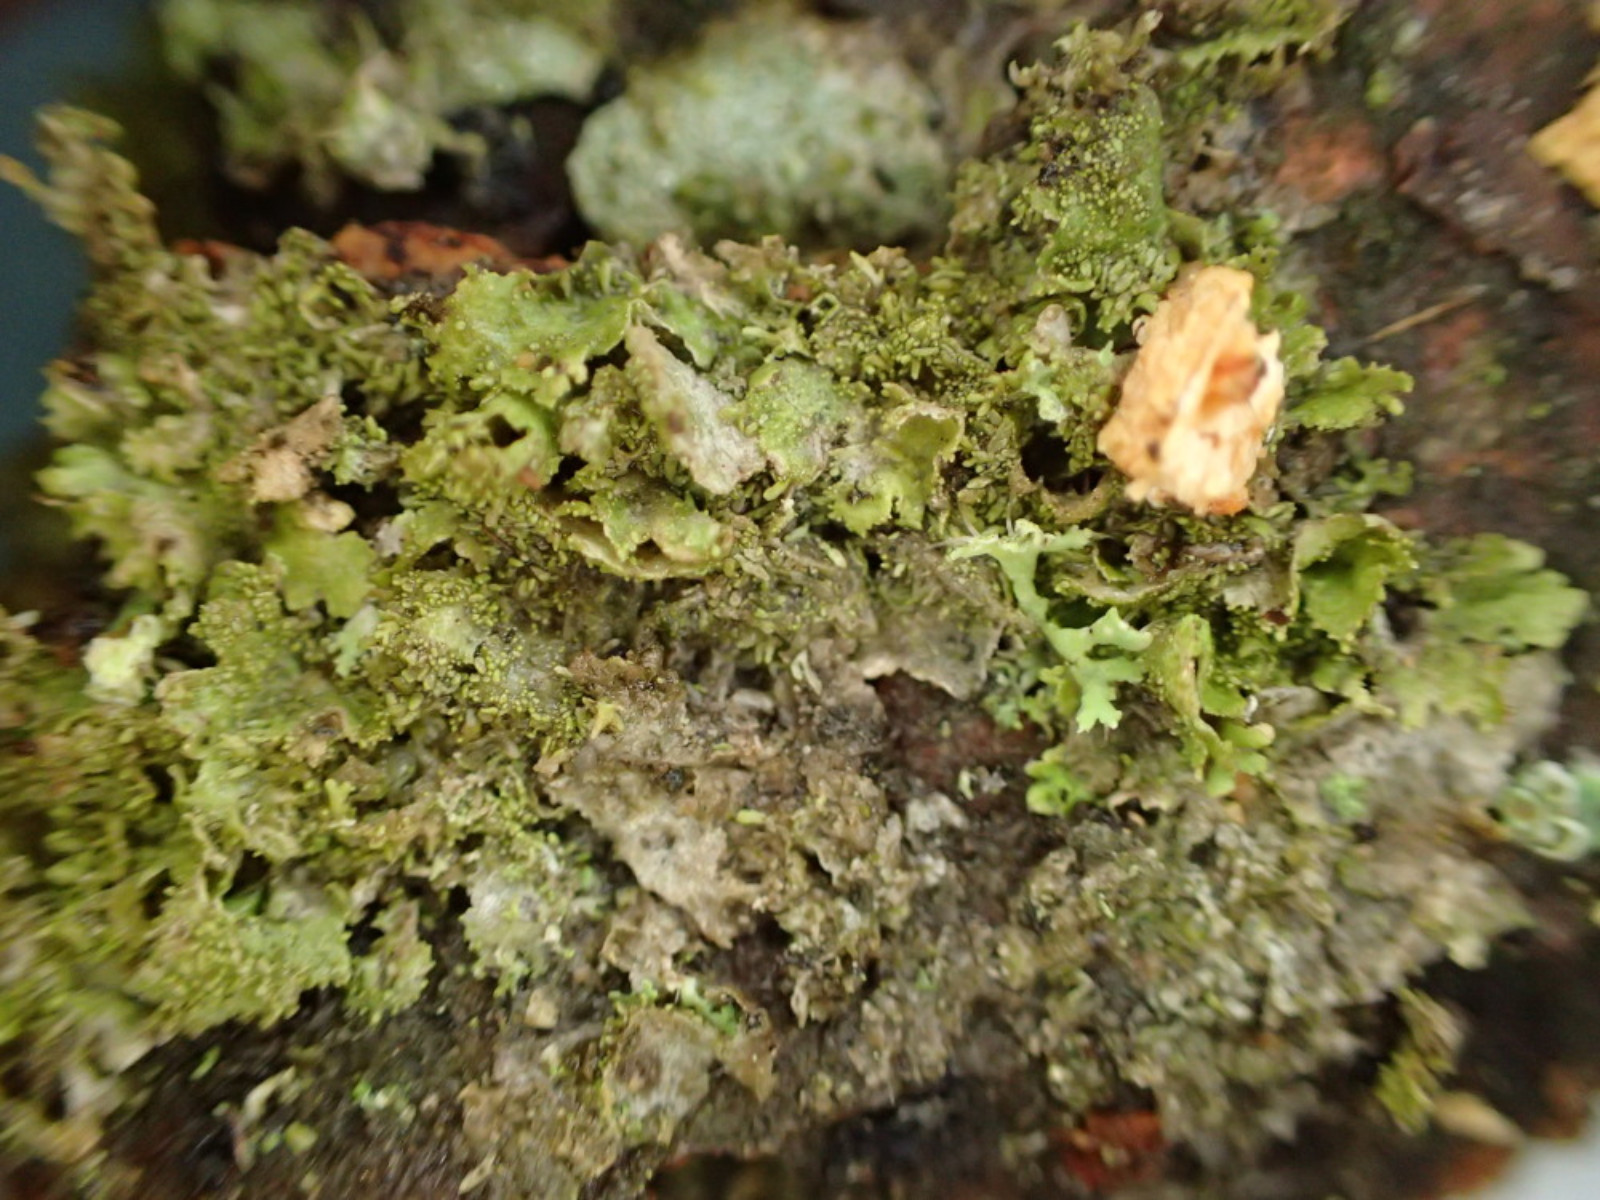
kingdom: Fungi
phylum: Ascomycota
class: Lecanoromycetes
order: Lecanorales
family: Parmeliaceae
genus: Melanohalea
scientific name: Melanohalea exasperatula
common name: kølle-skållav
